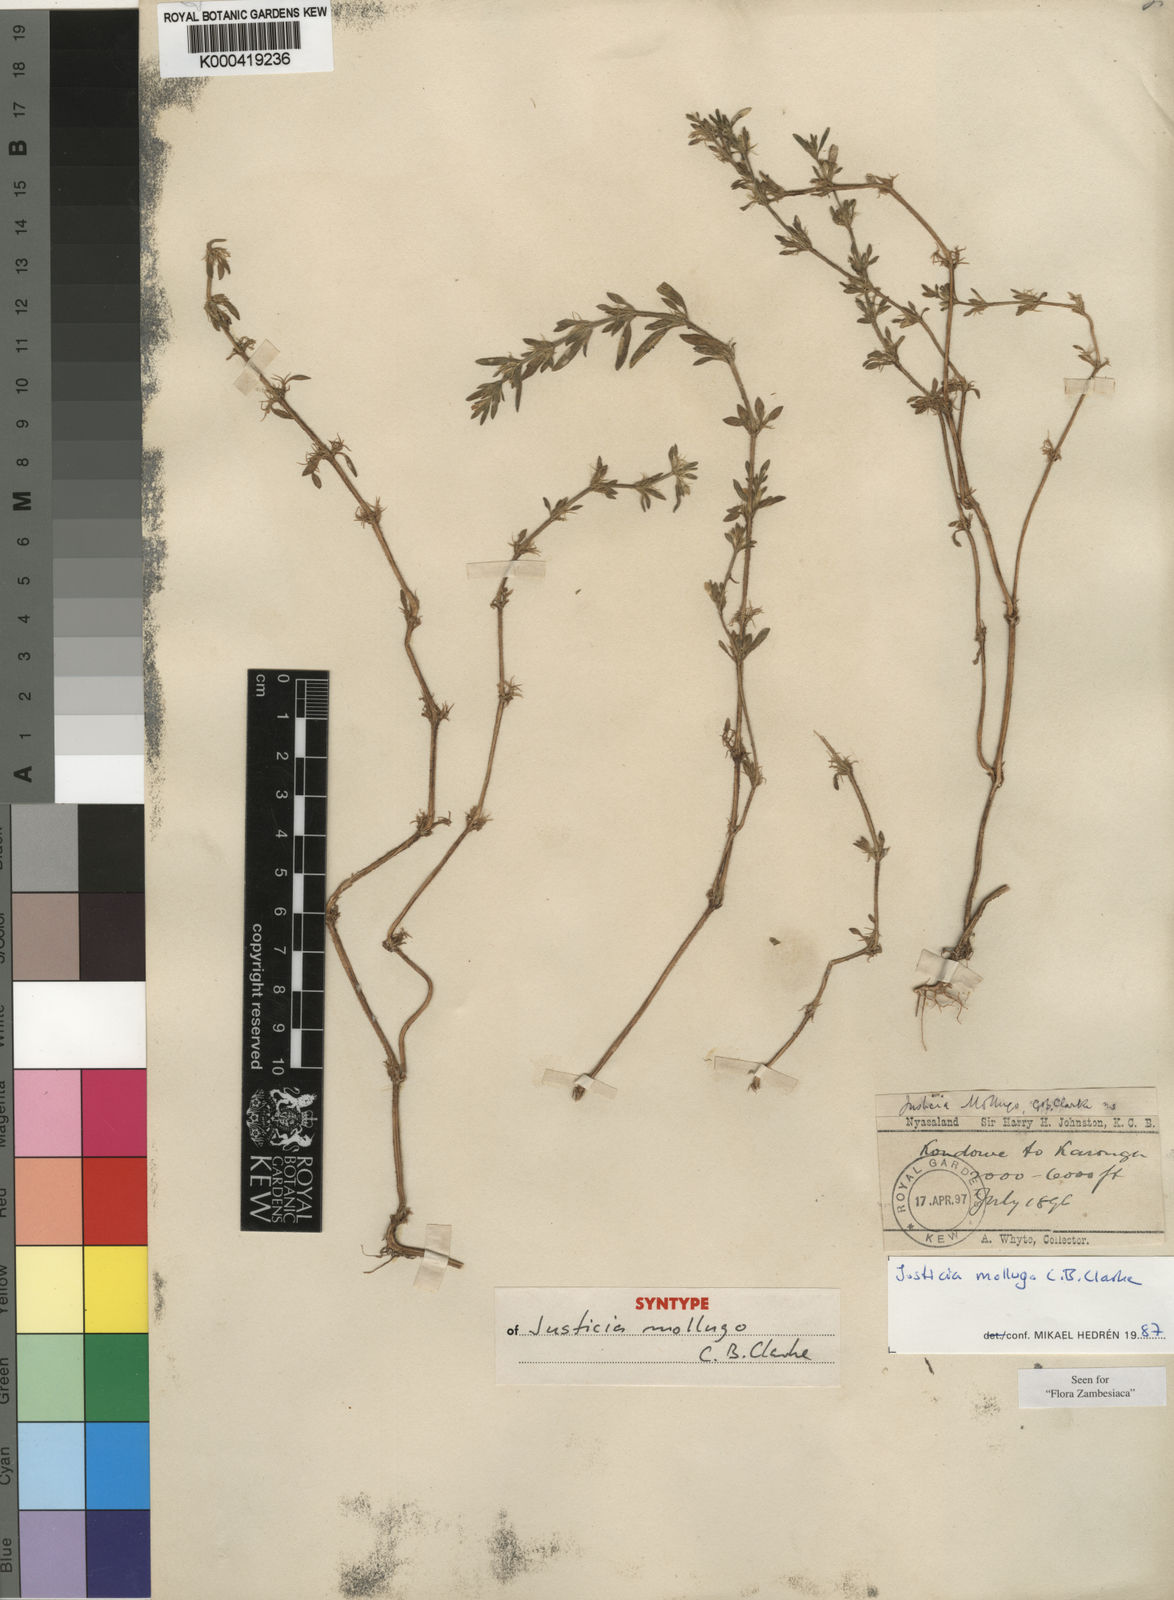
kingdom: Plantae
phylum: Tracheophyta
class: Magnoliopsida
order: Lamiales
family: Acanthaceae
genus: Justicia
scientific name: Justicia mollugo
